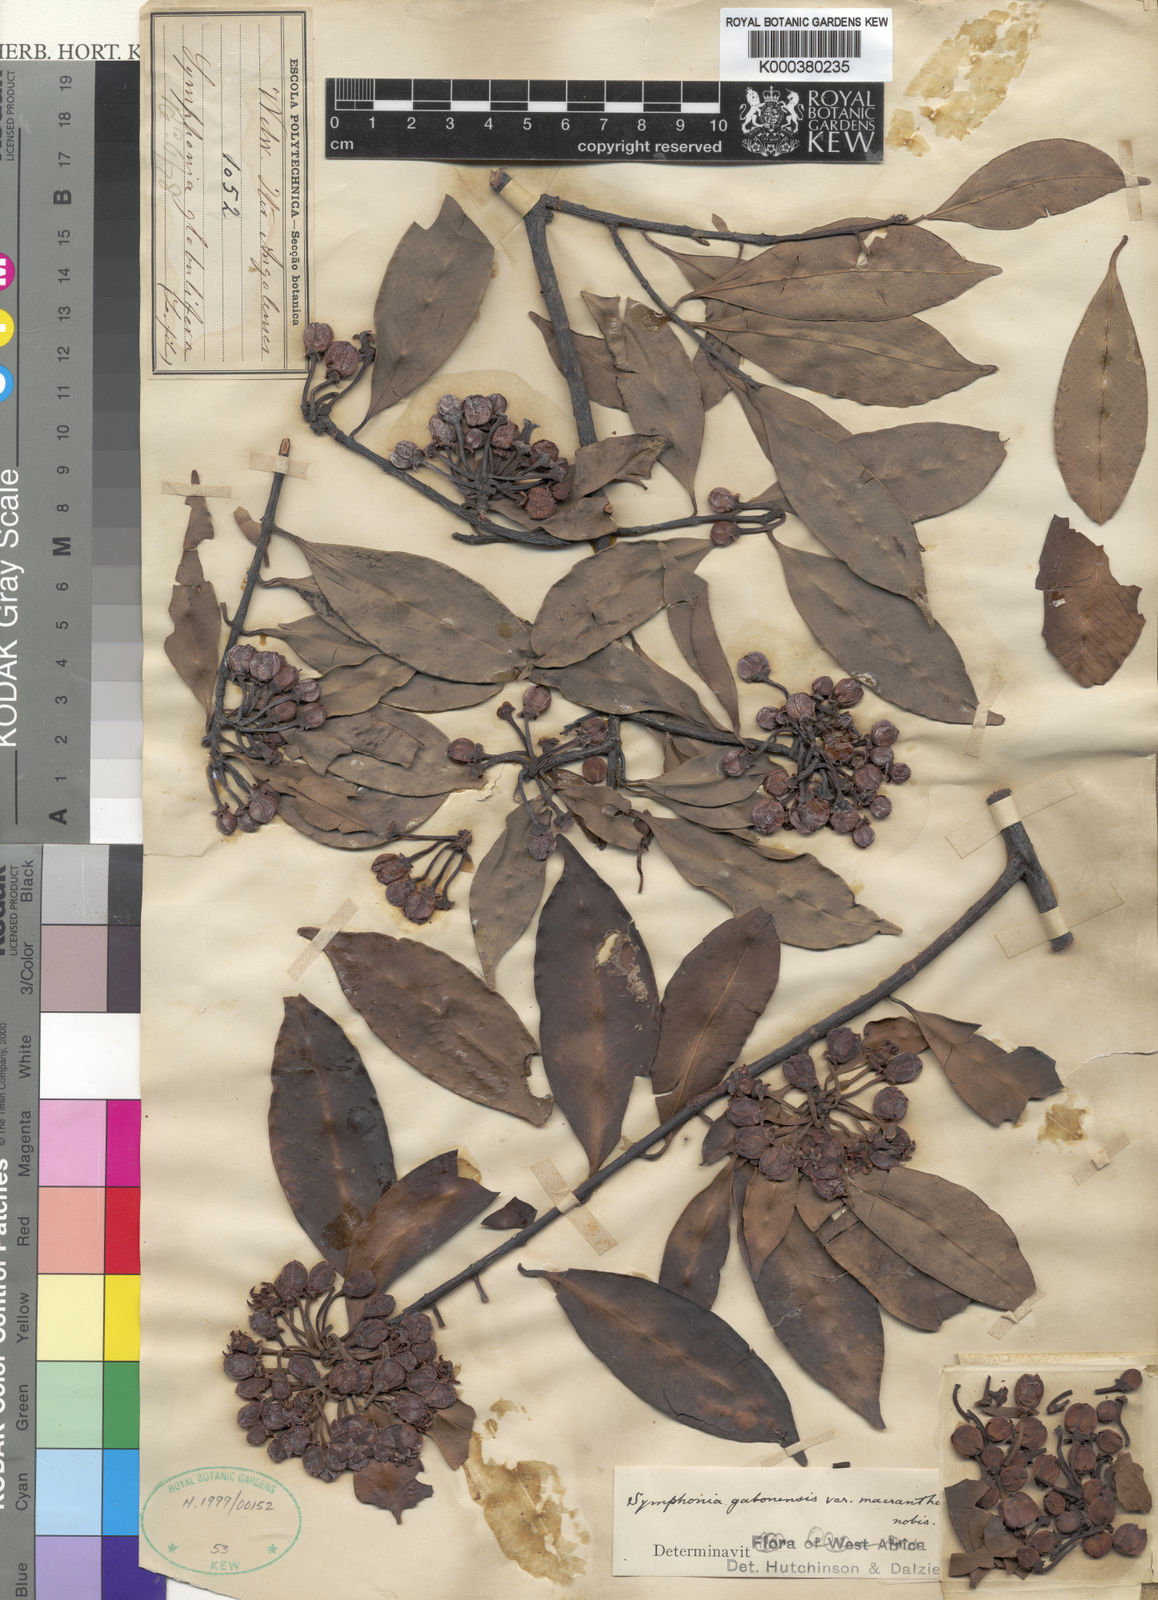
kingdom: Plantae
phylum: Tracheophyta
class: Magnoliopsida
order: Malpighiales
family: Clusiaceae
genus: Symphonia
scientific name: Symphonia globulifera
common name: Boarwood
